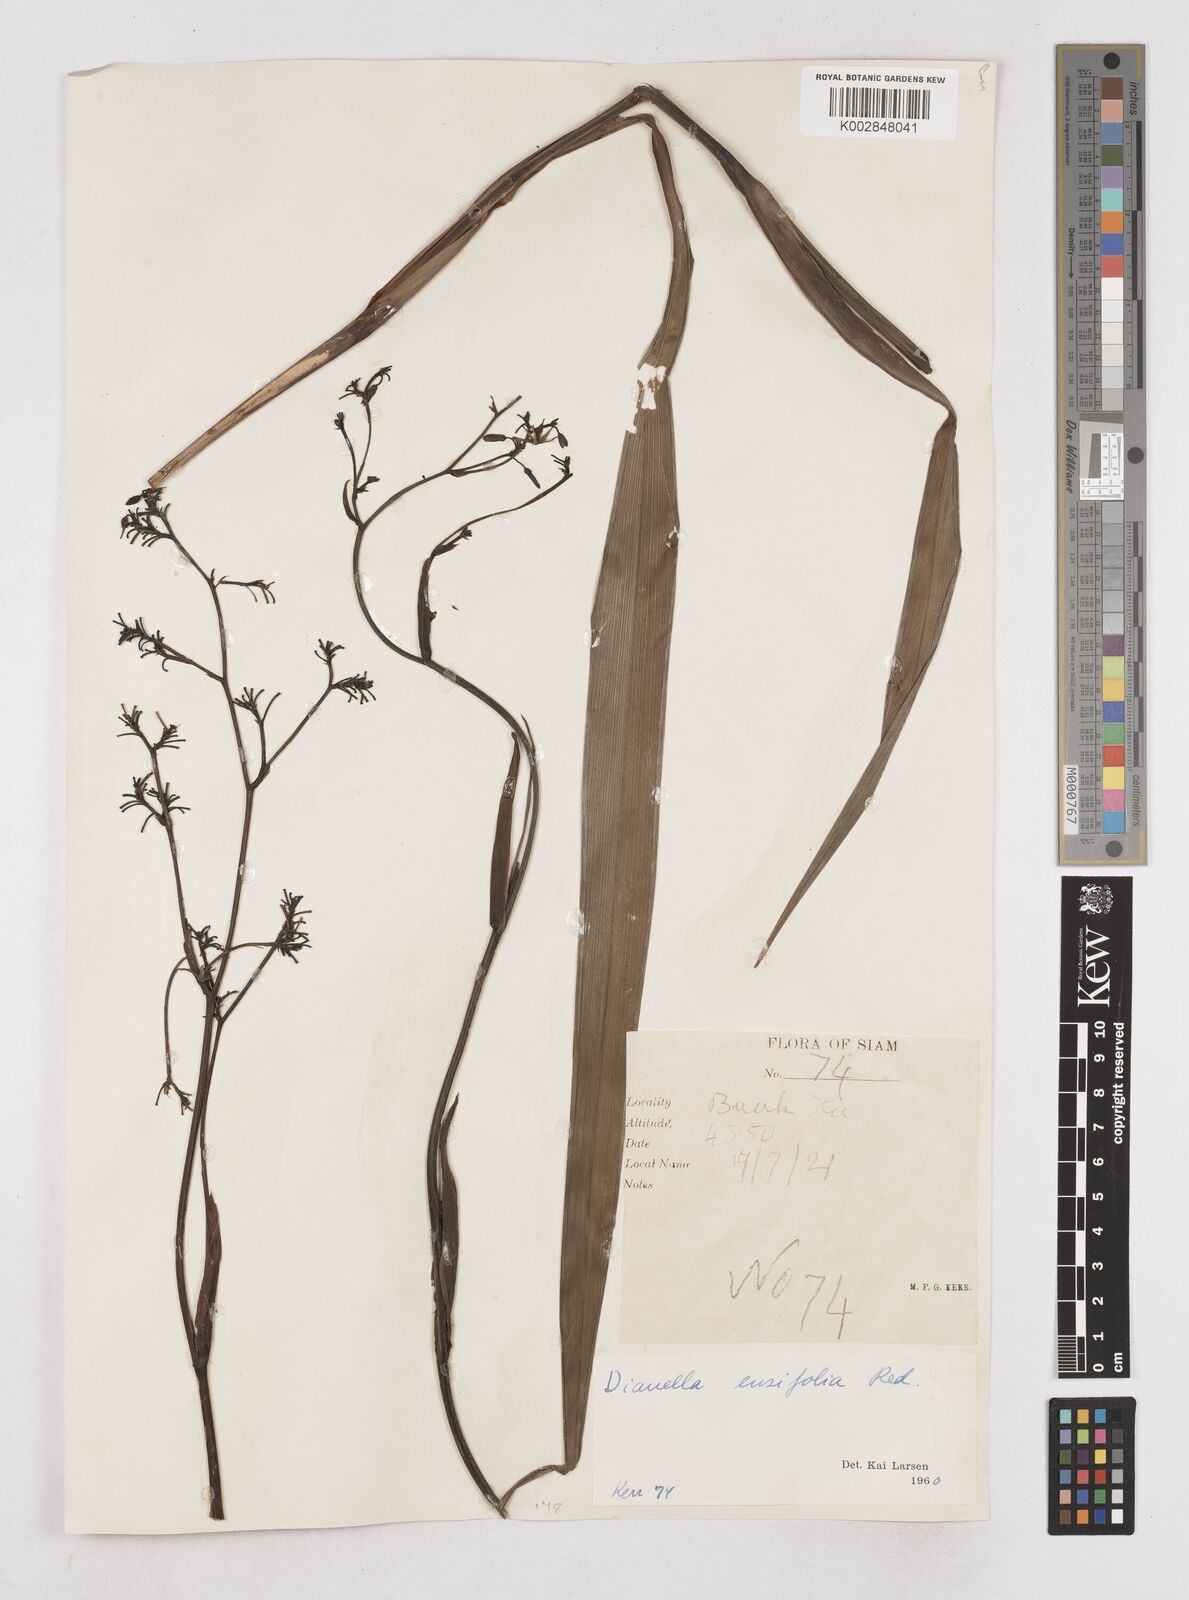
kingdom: Plantae
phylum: Tracheophyta
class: Liliopsida
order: Asparagales
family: Asphodelaceae
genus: Dianella
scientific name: Dianella ensifolia
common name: New zealand lilyplant
